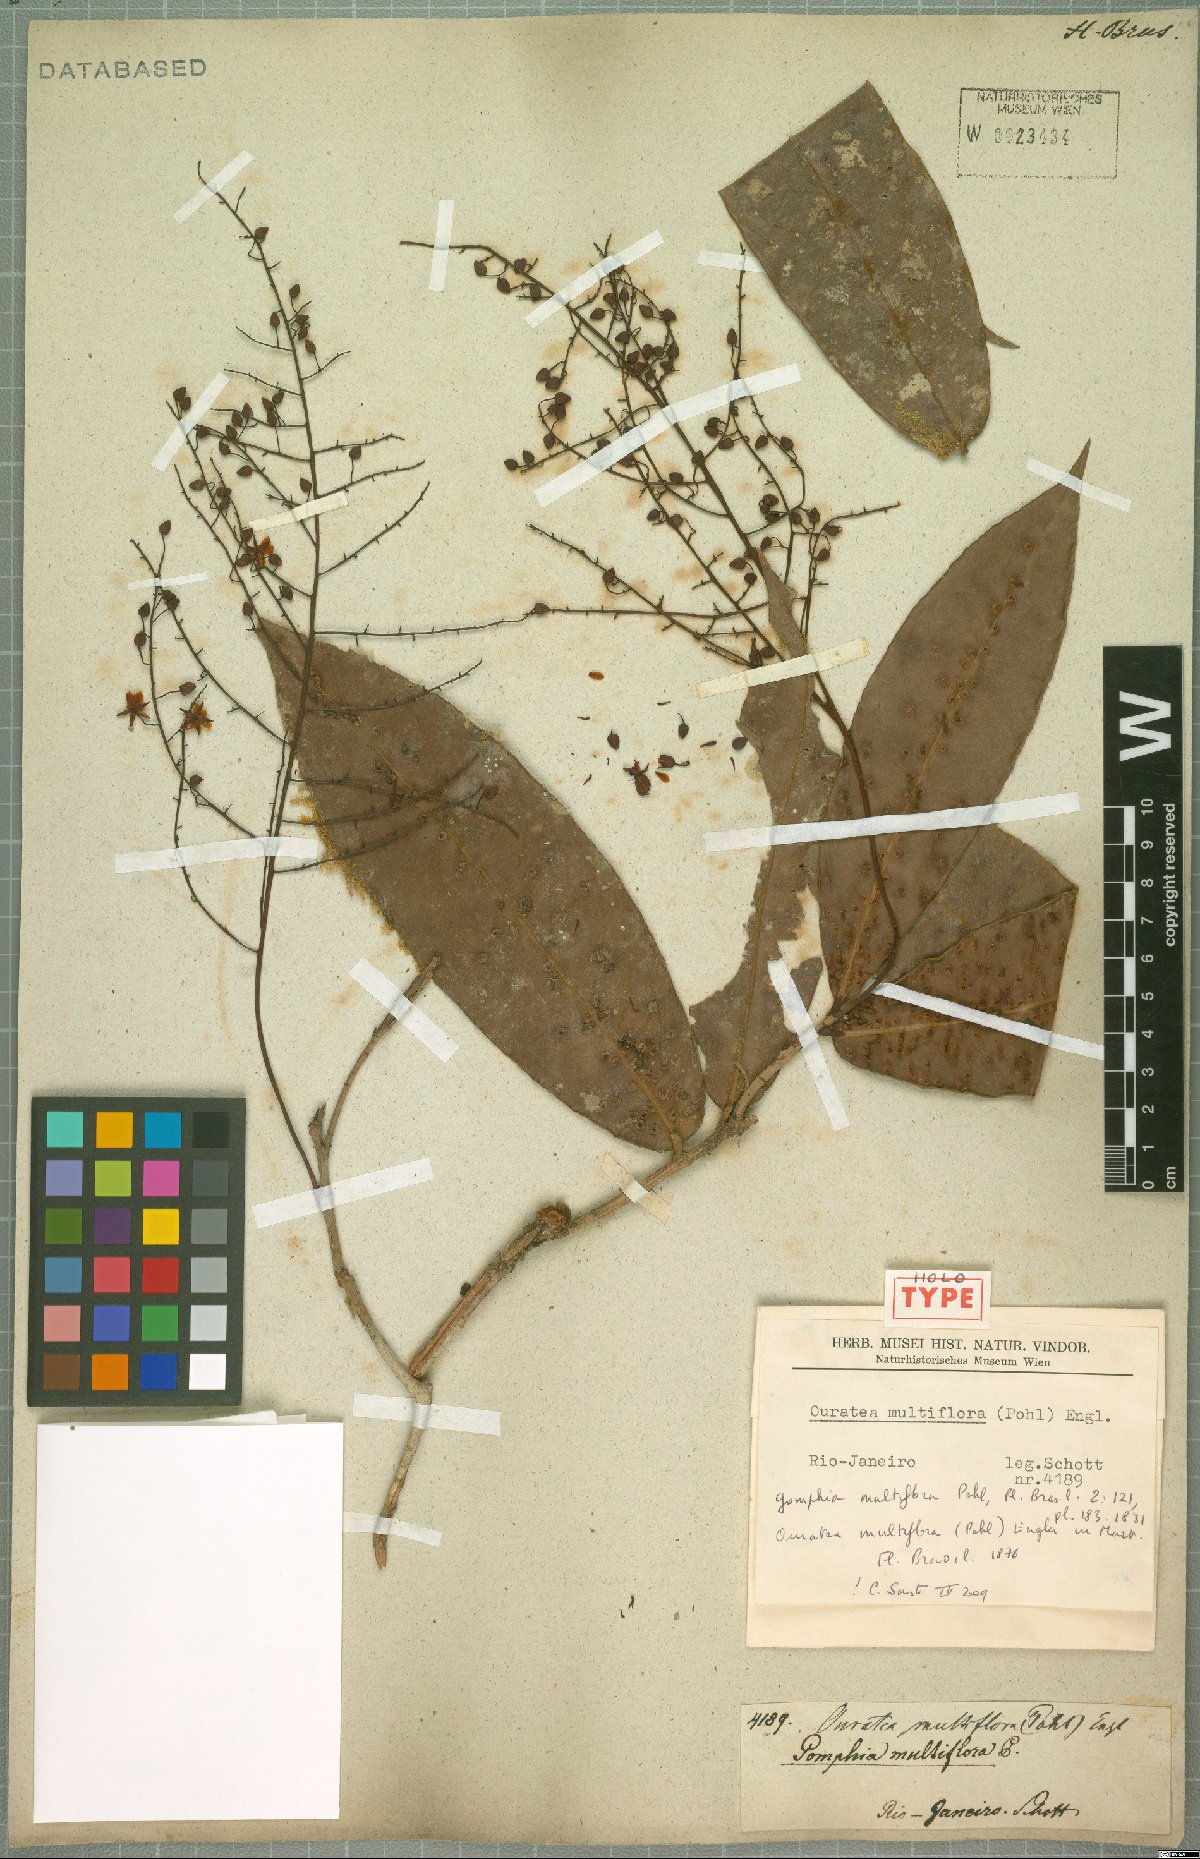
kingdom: Plantae
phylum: Tracheophyta
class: Magnoliopsida
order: Malpighiales
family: Ochnaceae
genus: Ouratea
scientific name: Ouratea multiflora
